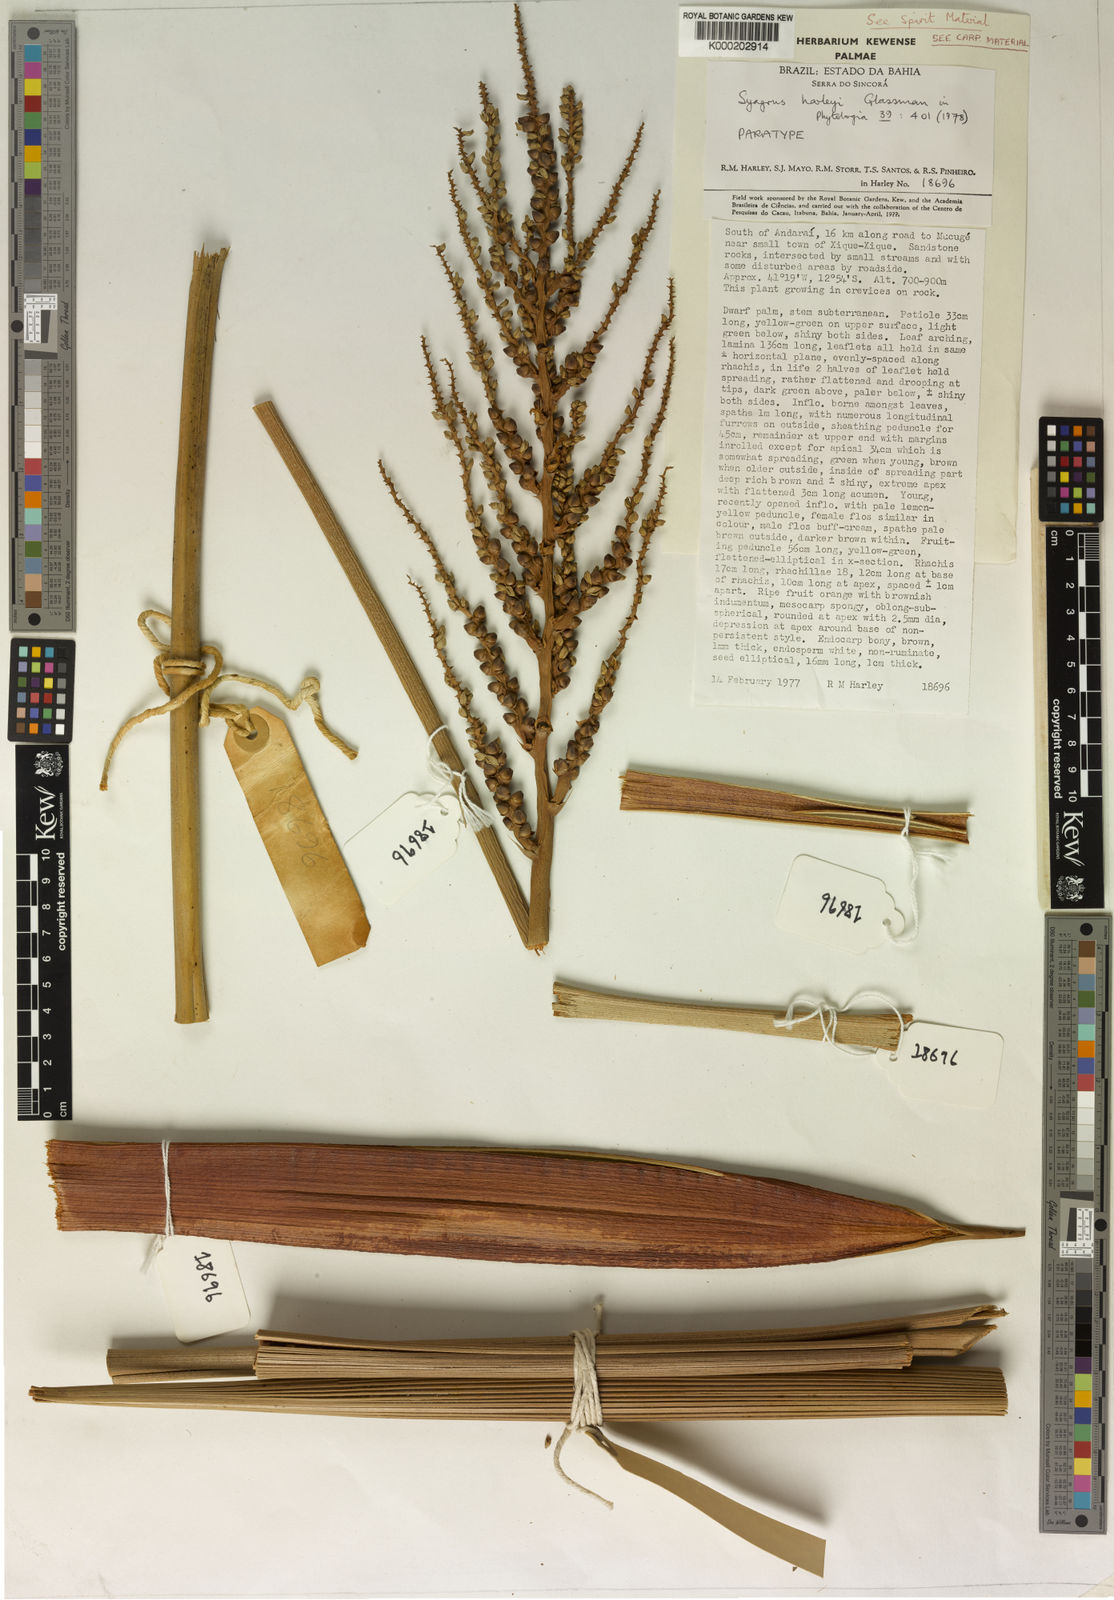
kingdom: Plantae
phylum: Tracheophyta
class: Liliopsida
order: Arecales
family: Arecaceae
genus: Syagrus
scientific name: Syagrus harleyi
